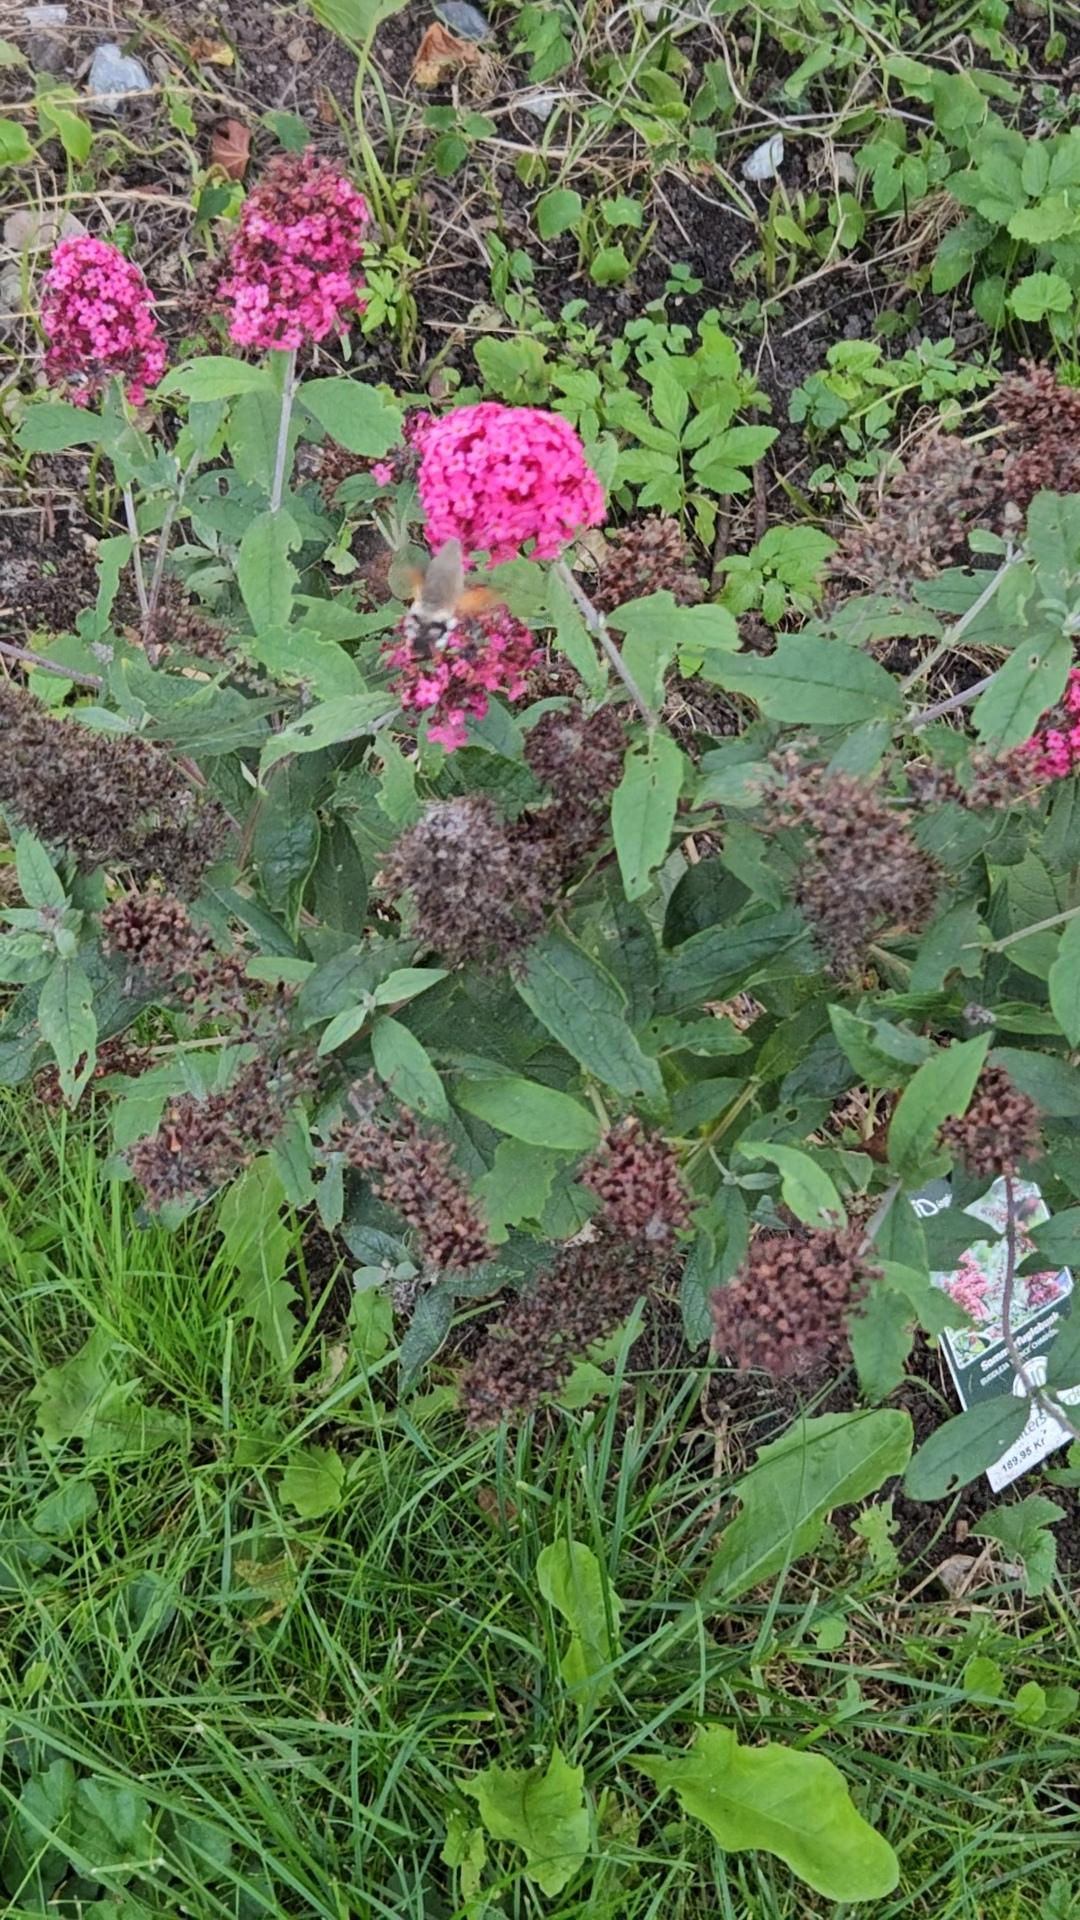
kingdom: Animalia
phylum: Arthropoda
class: Insecta
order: Lepidoptera
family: Sphingidae
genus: Macroglossum
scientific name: Macroglossum stellatarum
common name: Duehale
